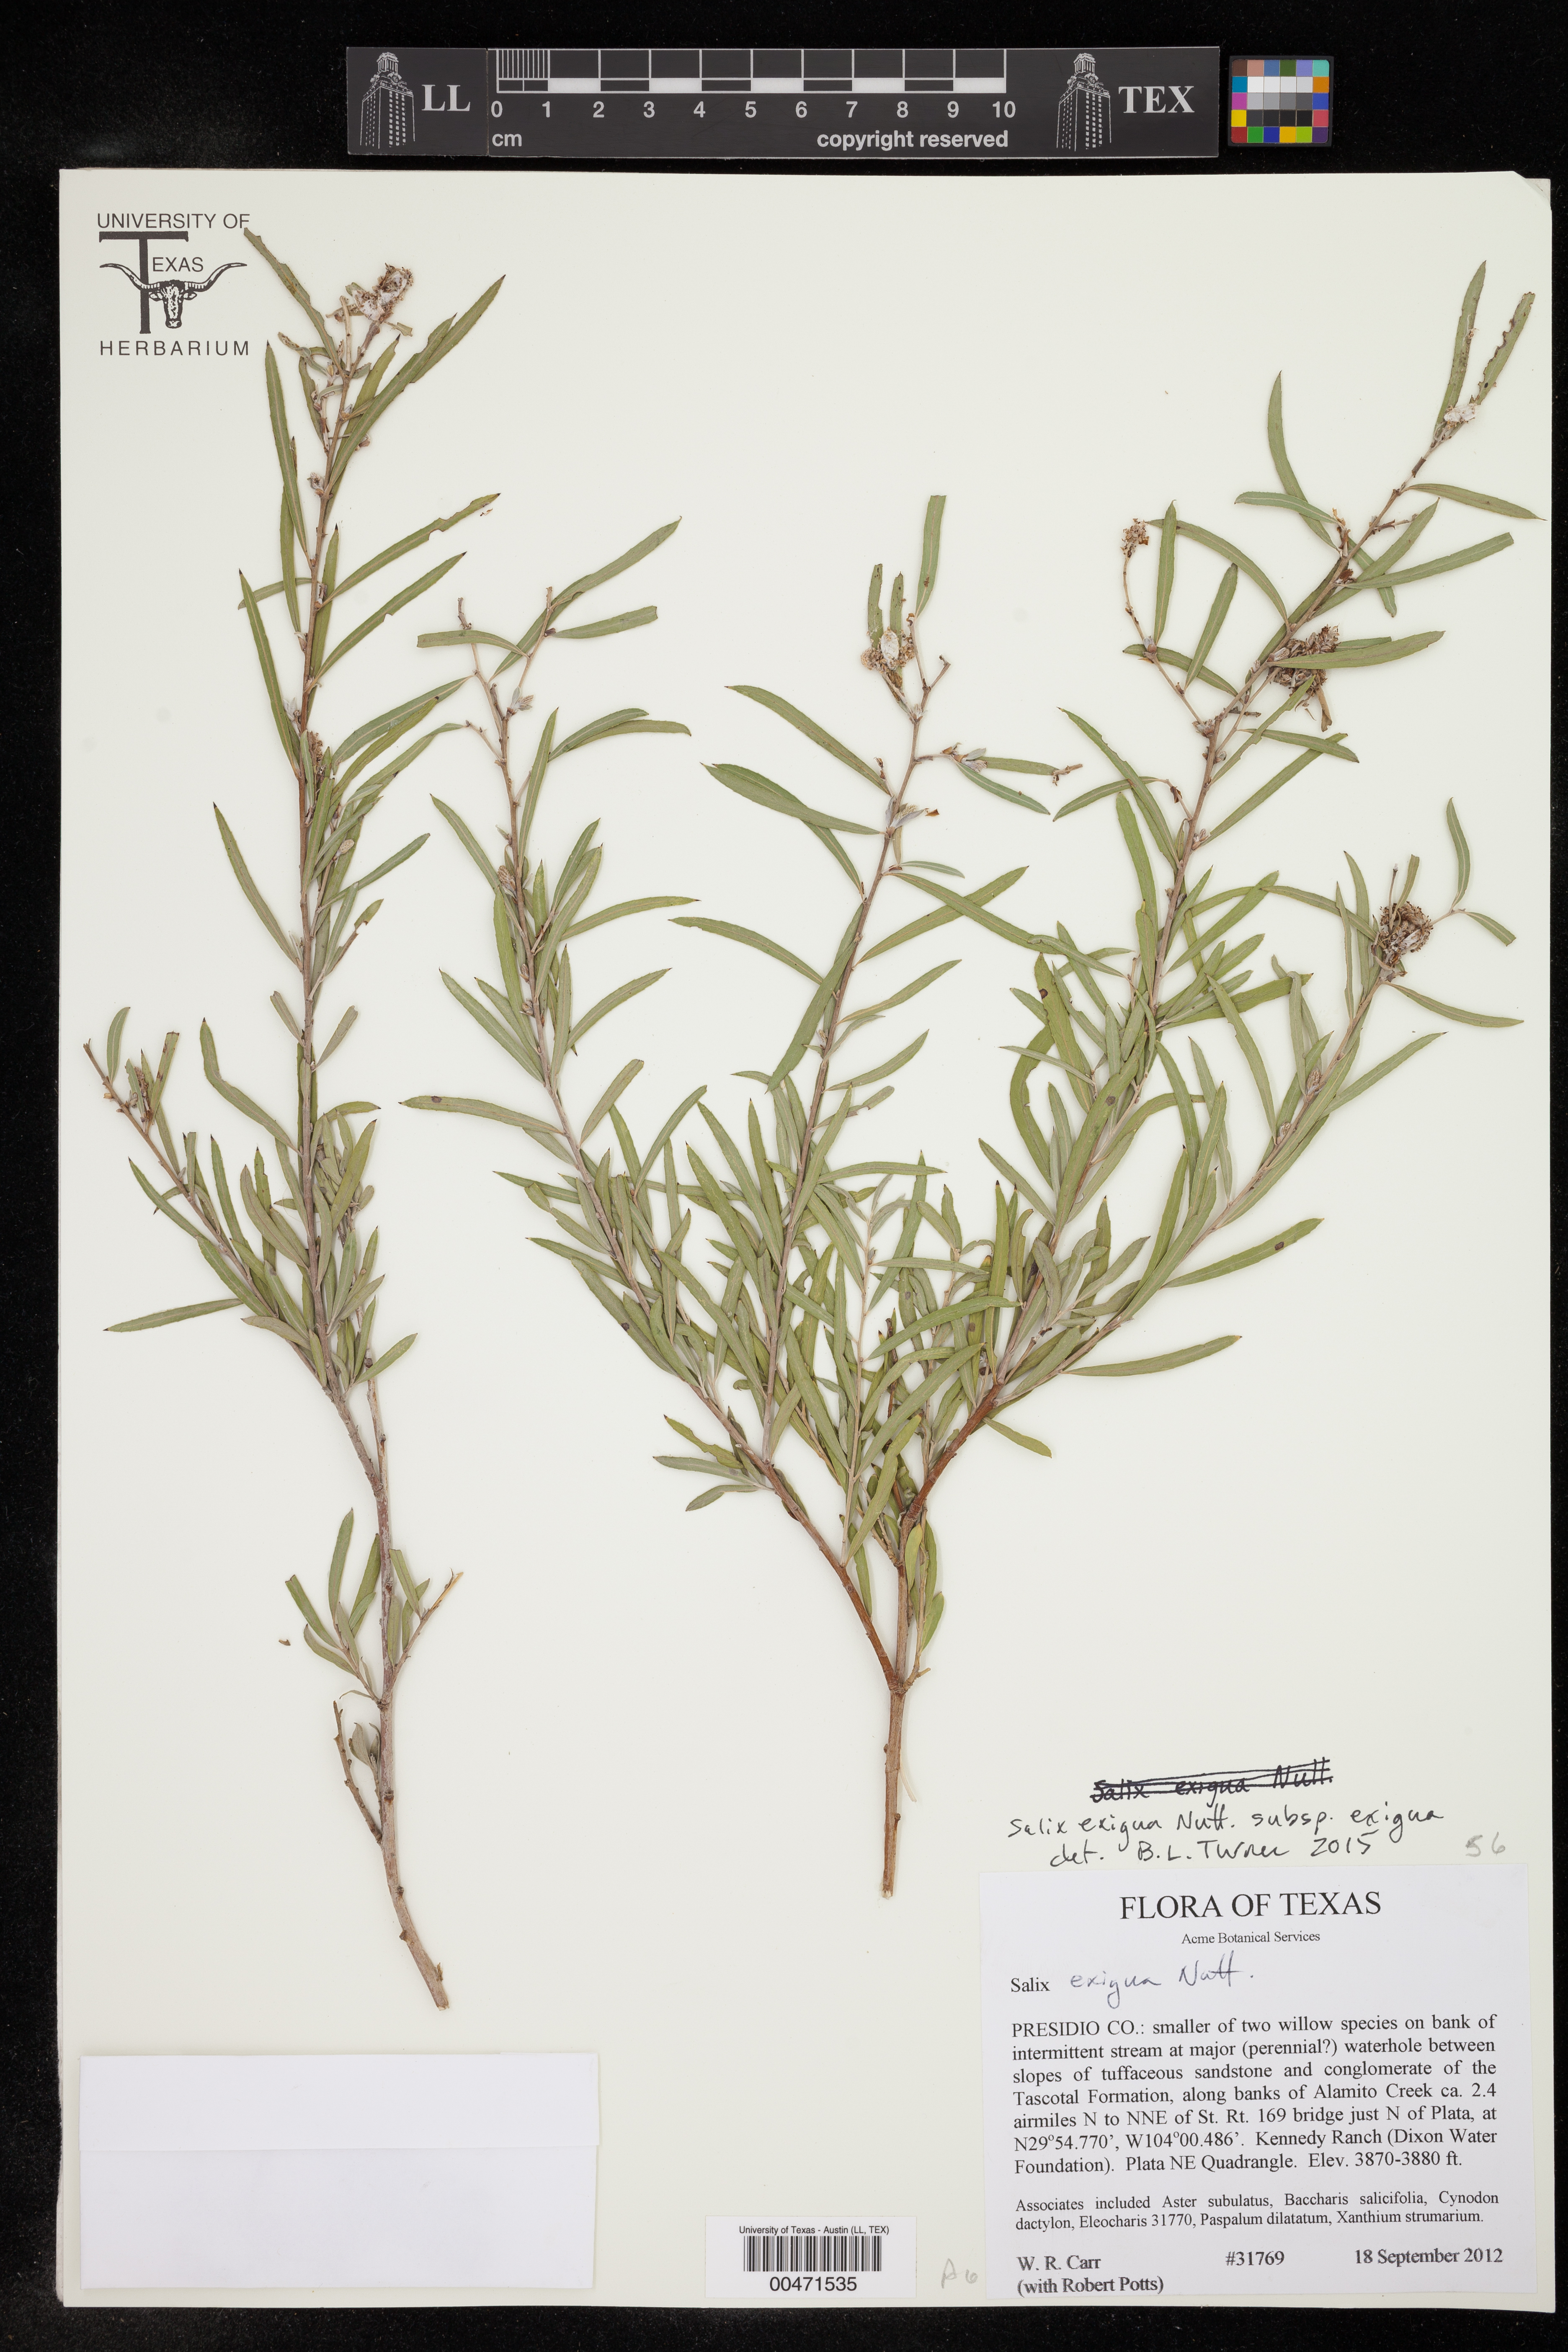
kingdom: Plantae
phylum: Tracheophyta
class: Magnoliopsida
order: Malpighiales
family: Salicaceae
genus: Salix
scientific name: Salix interior
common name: Sandbar willow
